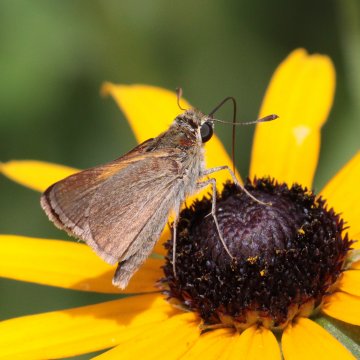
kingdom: Animalia
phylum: Arthropoda
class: Insecta
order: Lepidoptera
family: Hesperiidae
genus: Polites
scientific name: Polites themistocles
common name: Tawny-edged Skipper
